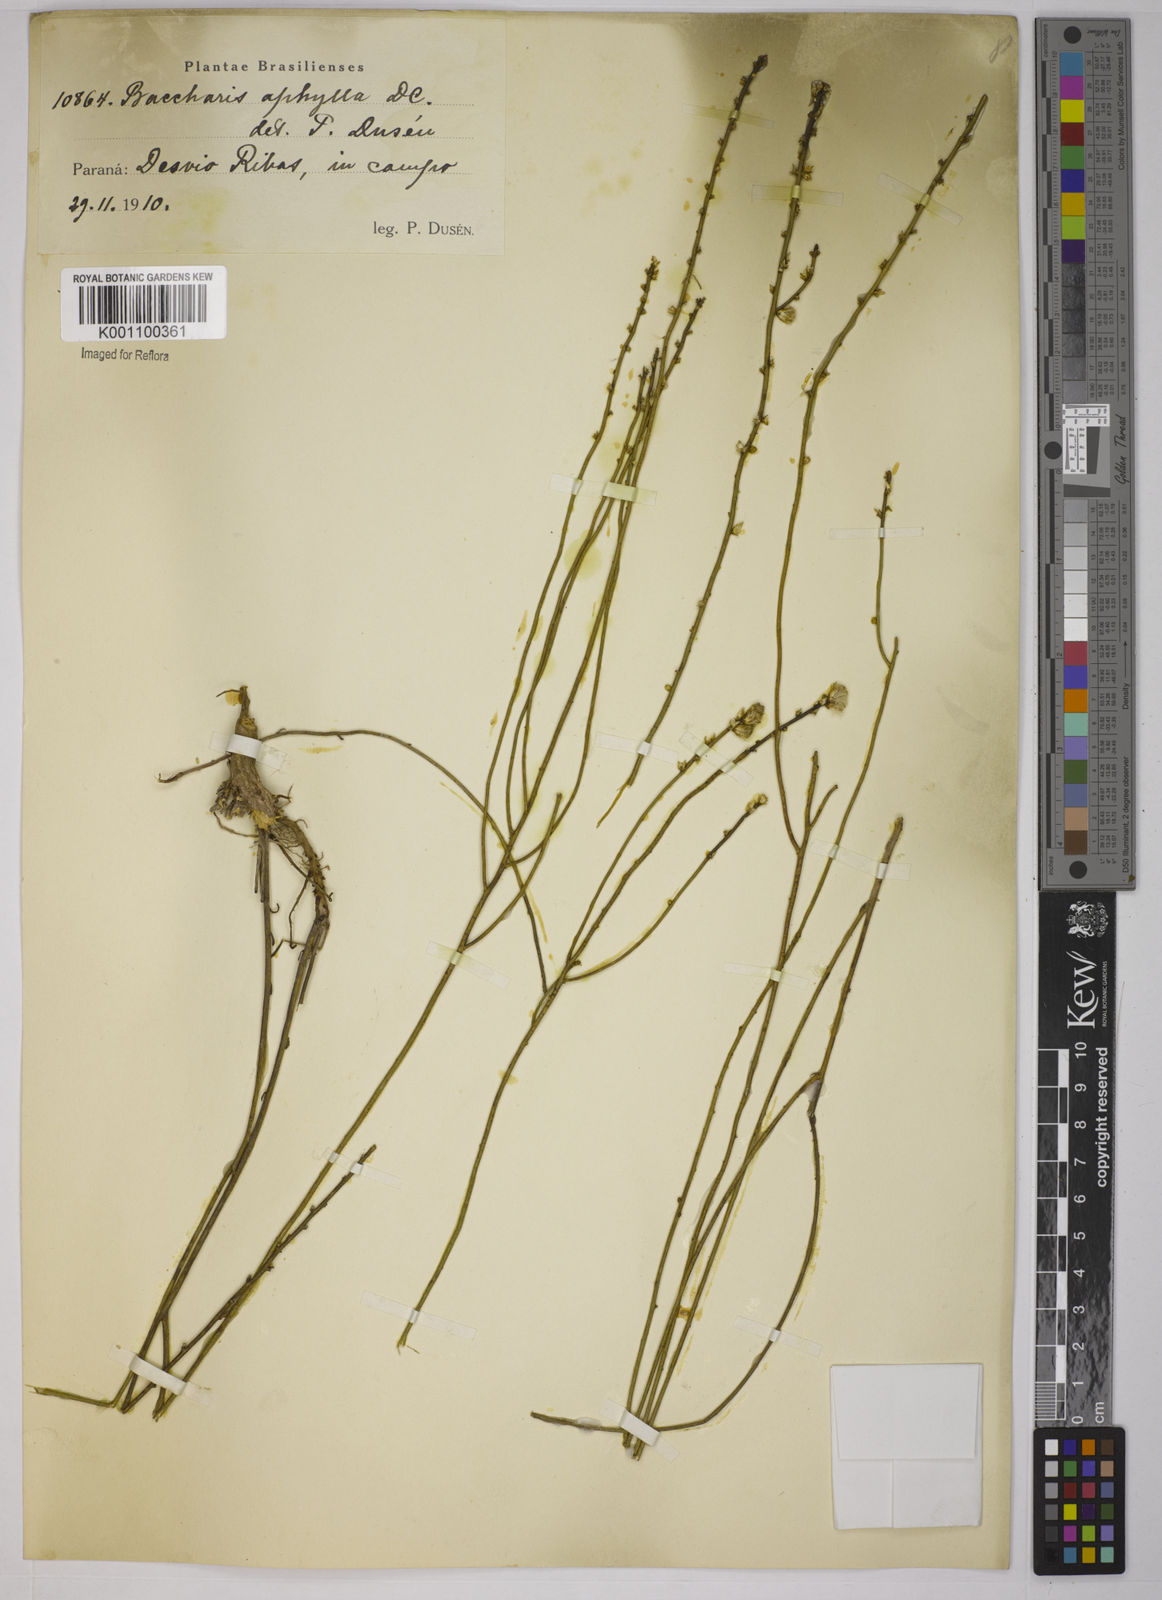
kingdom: Plantae
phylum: Tracheophyta
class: Magnoliopsida
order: Asterales
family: Asteraceae
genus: Baccharis
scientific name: Baccharis aphylla
